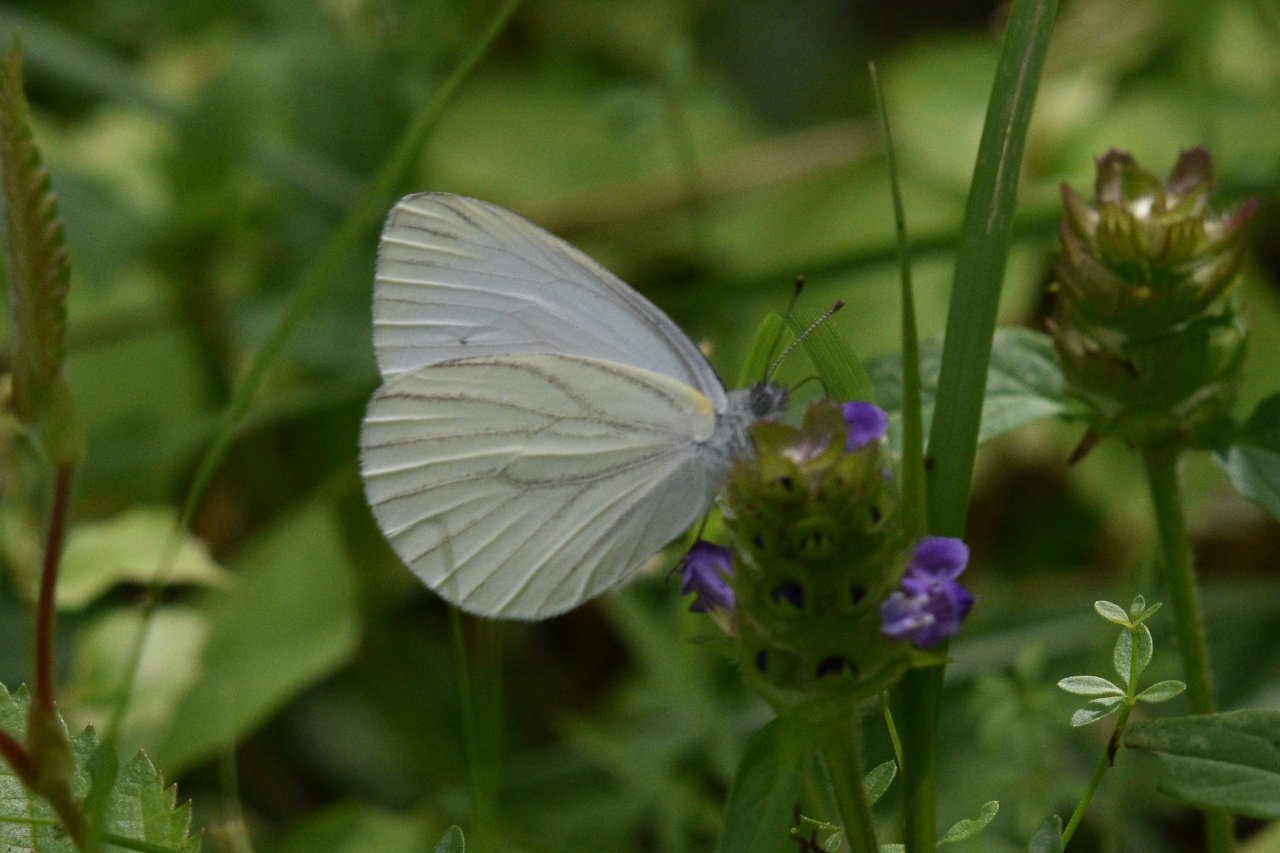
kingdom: Animalia
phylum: Arthropoda
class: Insecta
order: Lepidoptera
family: Pieridae
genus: Pieris
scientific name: Pieris oleracea
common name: Mustard White
